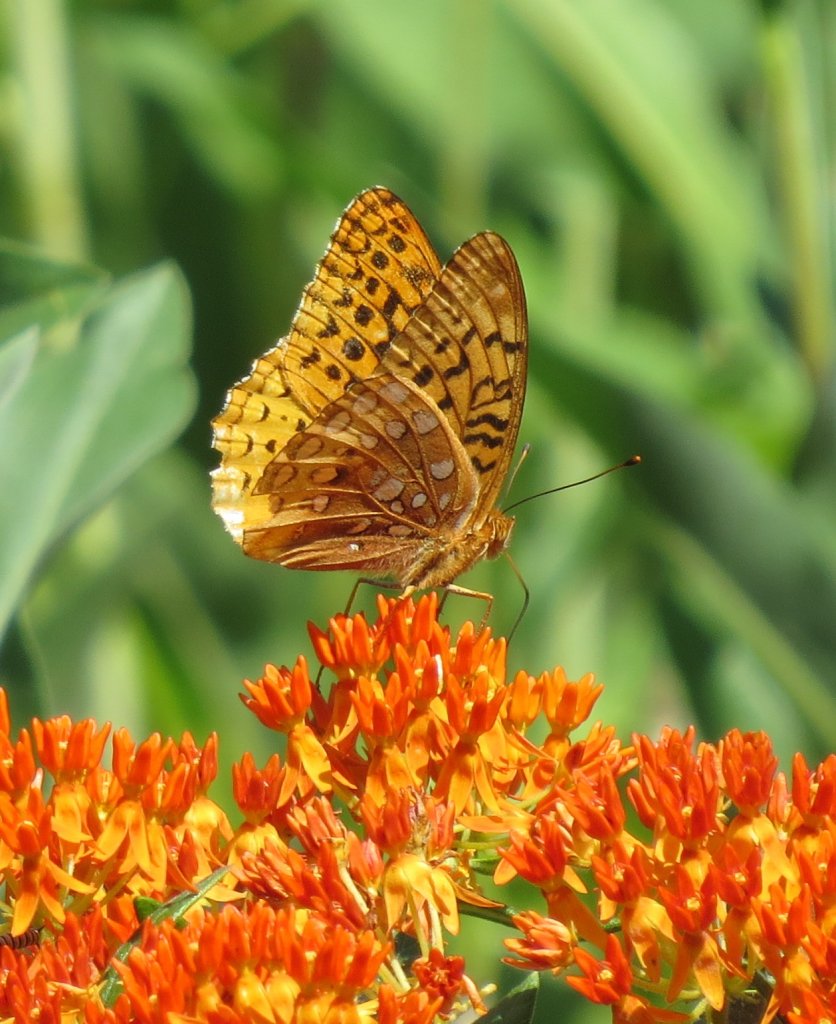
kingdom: Animalia
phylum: Arthropoda
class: Insecta
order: Lepidoptera
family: Nymphalidae
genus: Speyeria
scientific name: Speyeria cybele
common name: Great Spangled Fritillary
